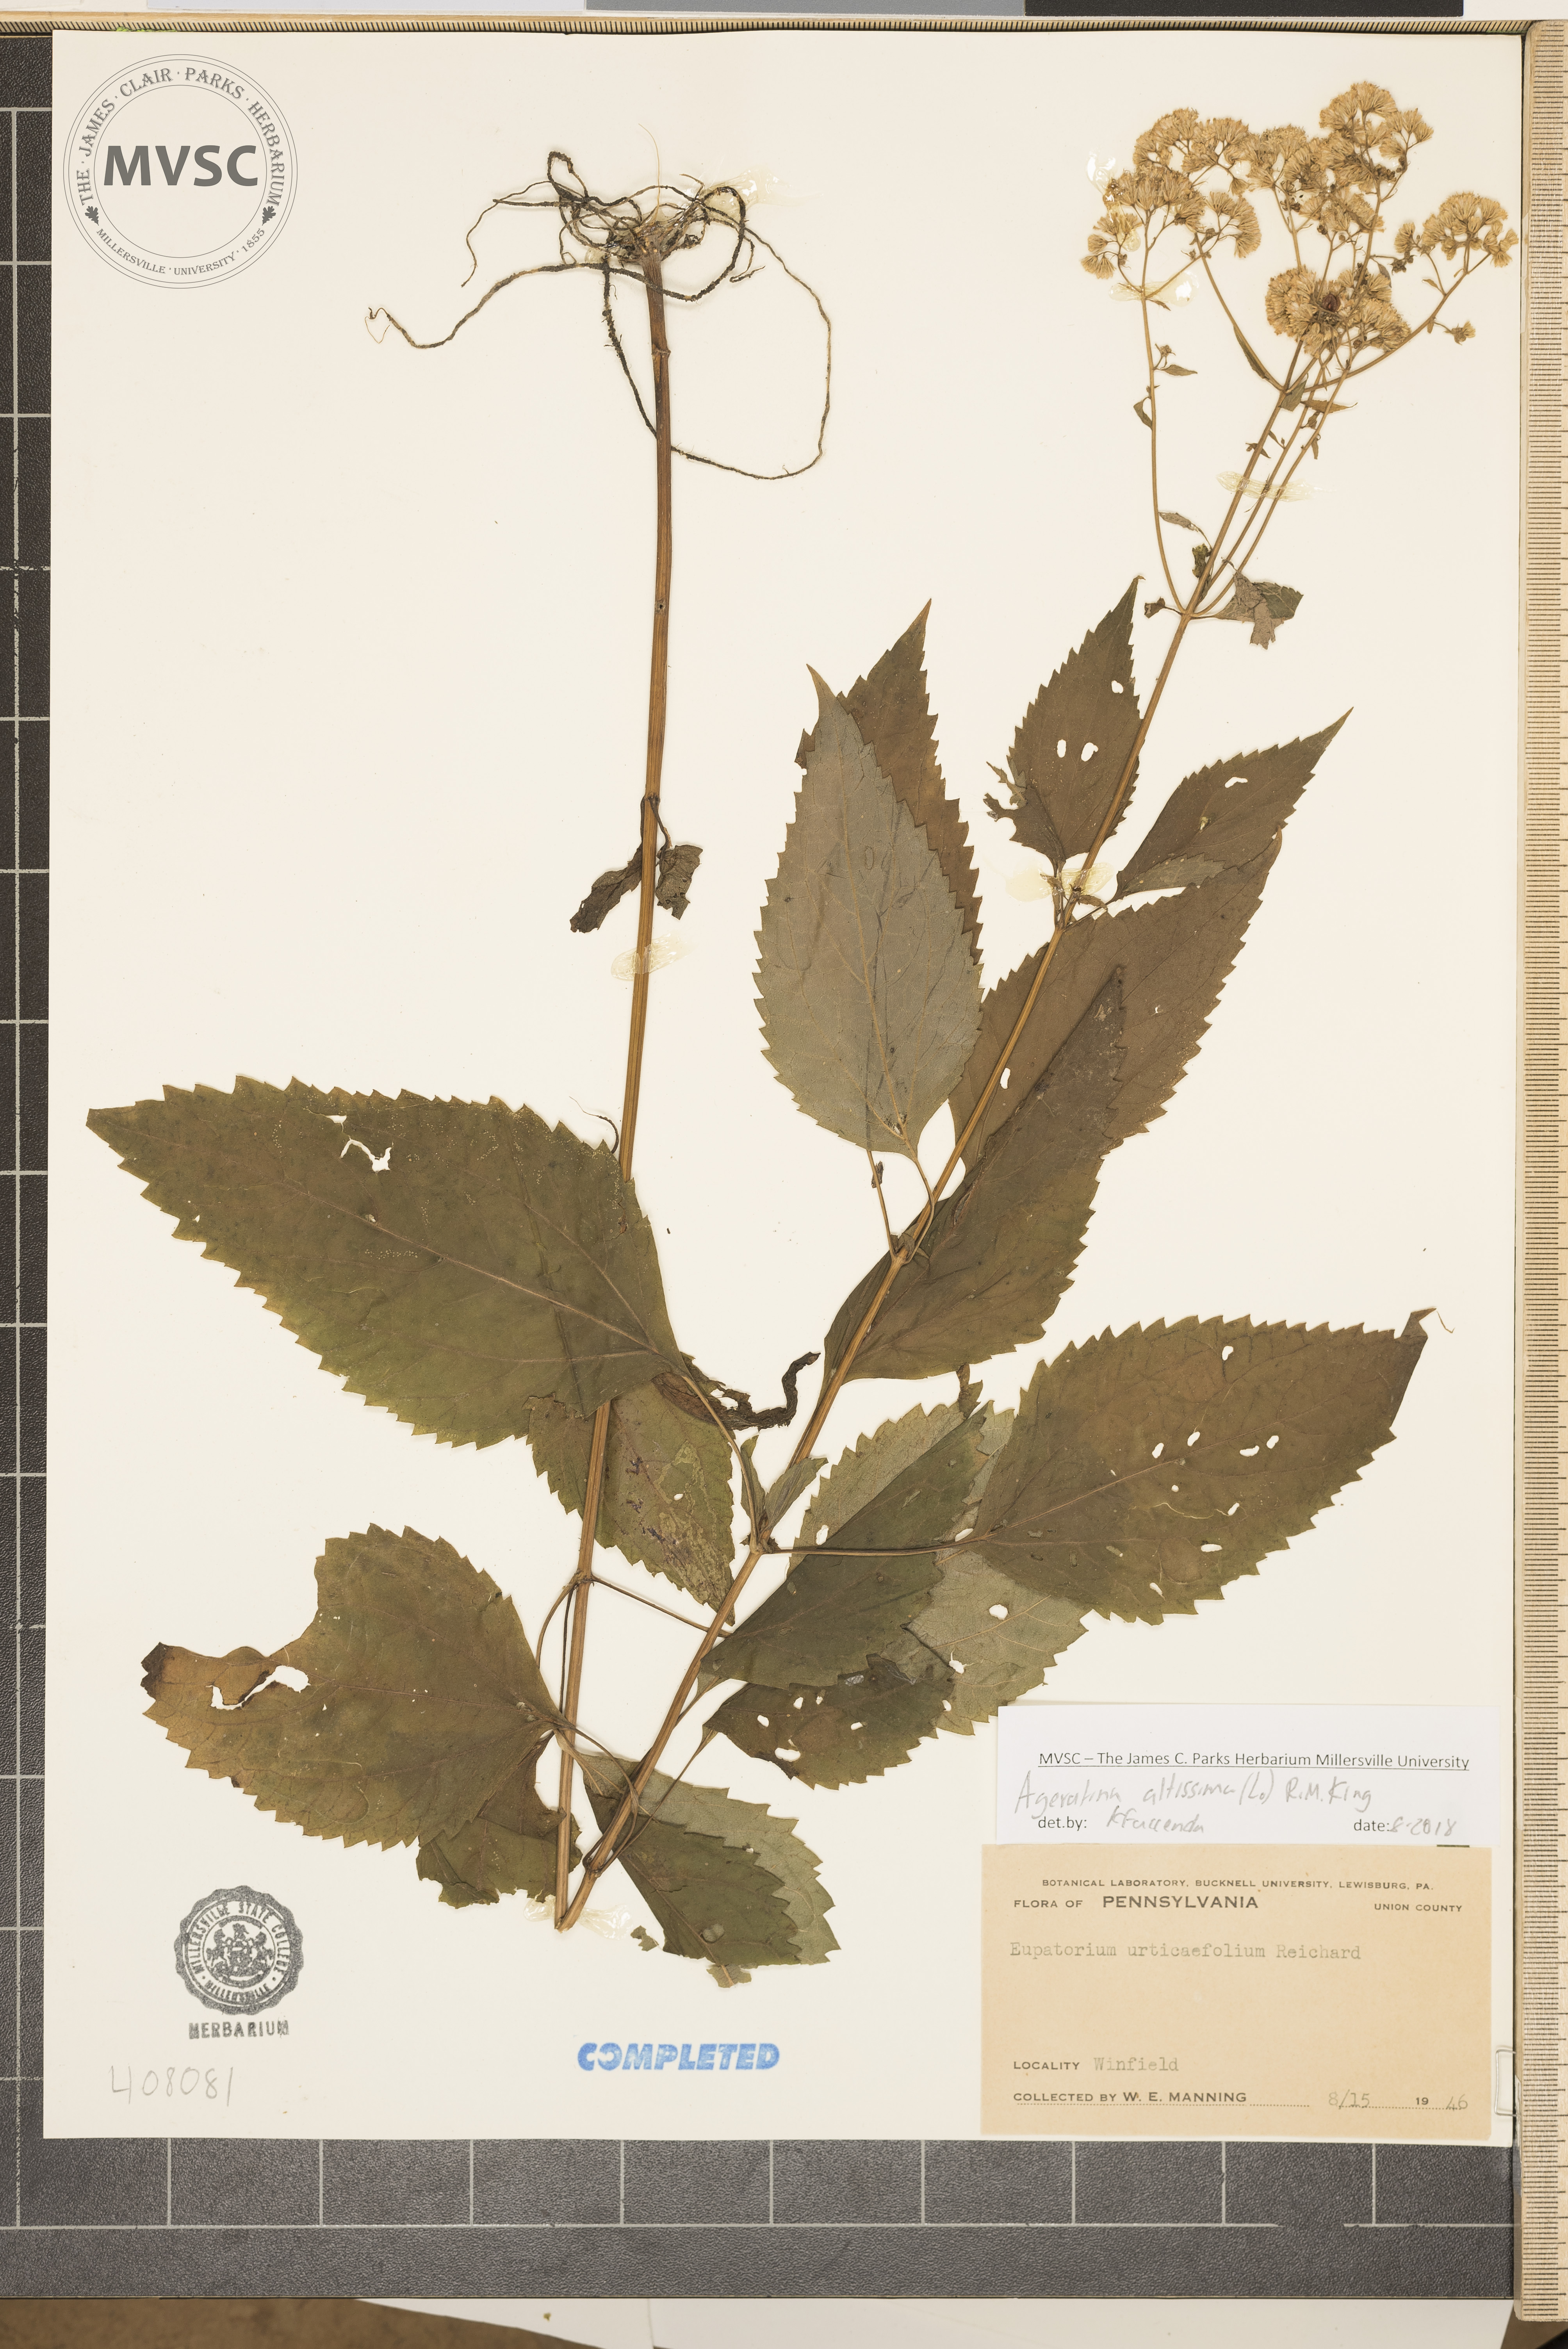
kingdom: Plantae
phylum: Tracheophyta
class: Magnoliopsida
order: Asterales
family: Asteraceae
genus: Ageratina
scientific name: Ageratina altissima
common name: White snakeroot
